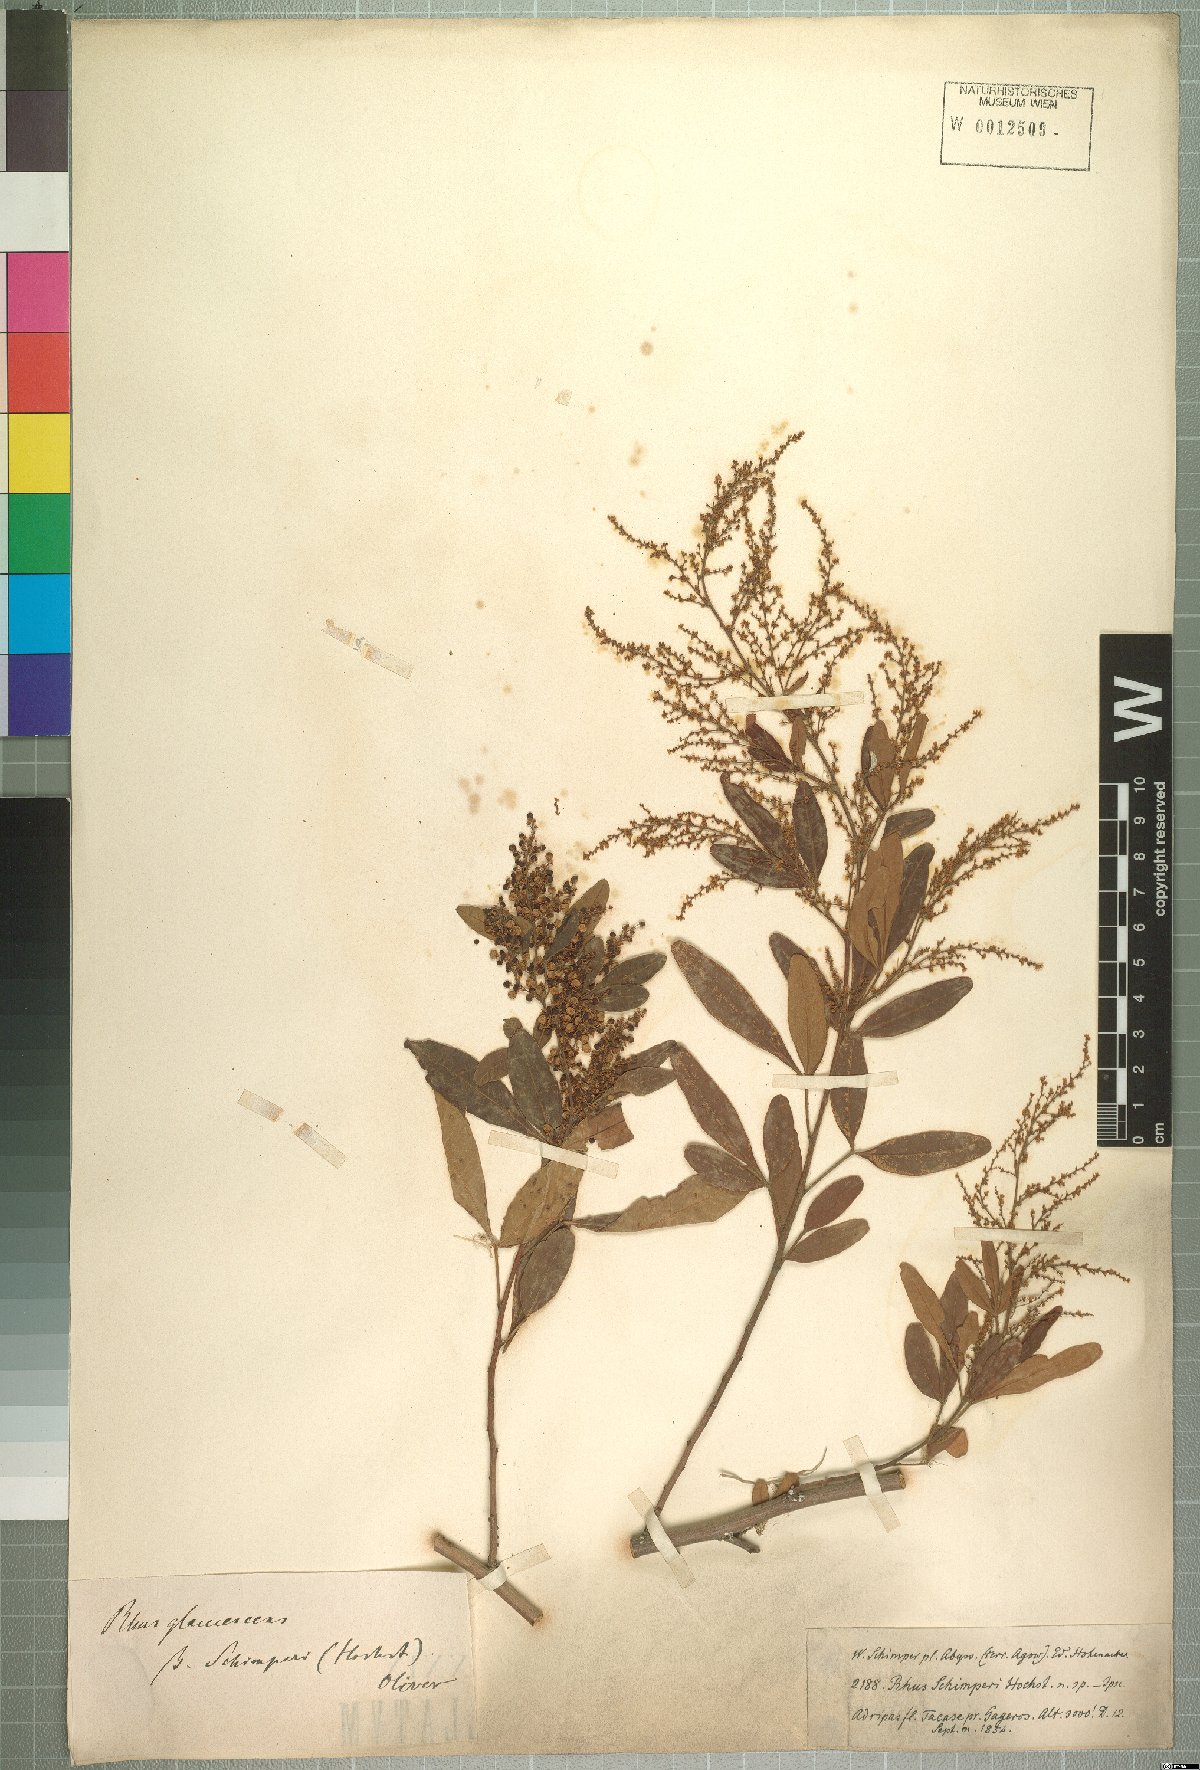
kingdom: Plantae
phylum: Tracheophyta
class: Magnoliopsida
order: Sapindales
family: Anacardiaceae
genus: Searsia
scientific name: Searsia quartiniana
